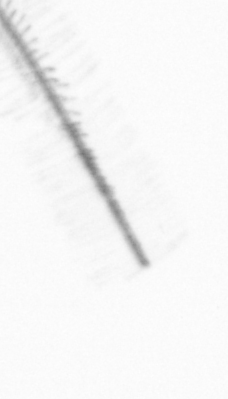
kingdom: Chromista
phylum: Ochrophyta
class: Bacillariophyceae
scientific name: Bacillariophyceae
